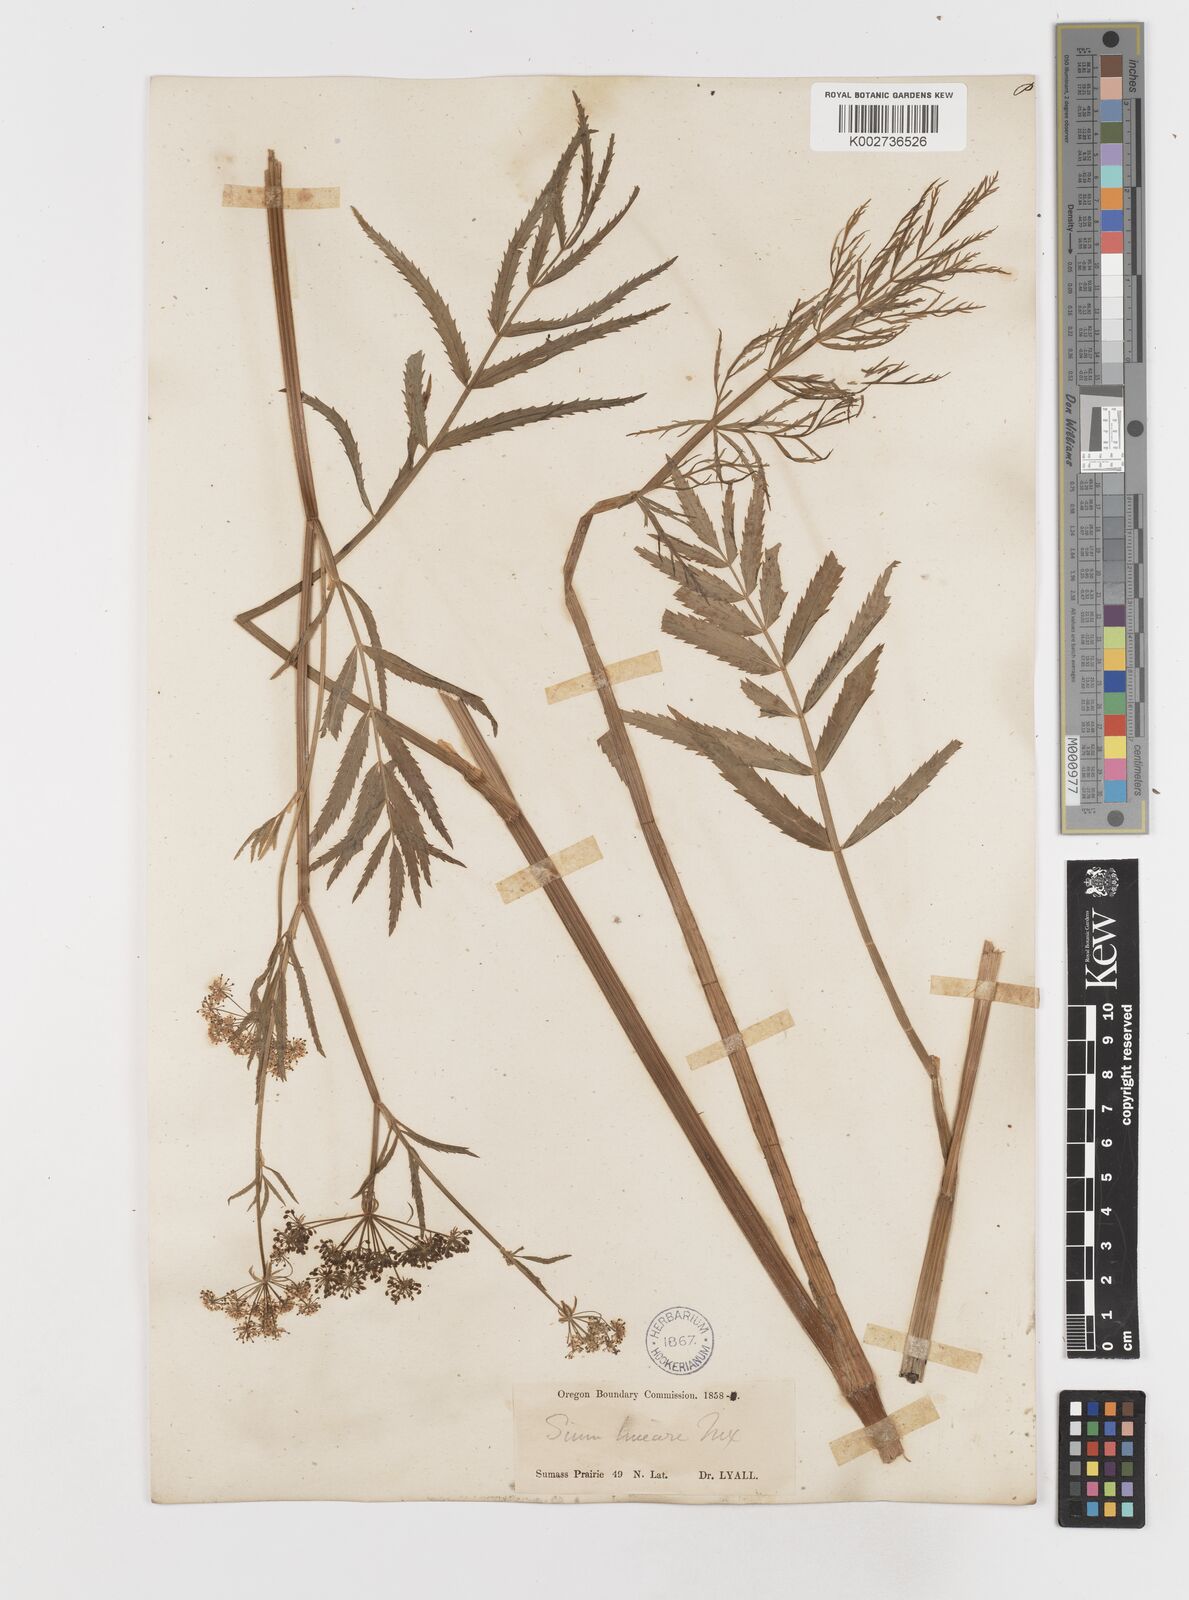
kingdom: Plantae
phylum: Tracheophyta
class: Magnoliopsida
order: Apiales
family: Apiaceae
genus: Sium
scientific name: Sium suave
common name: Hemlock water-parsnip
